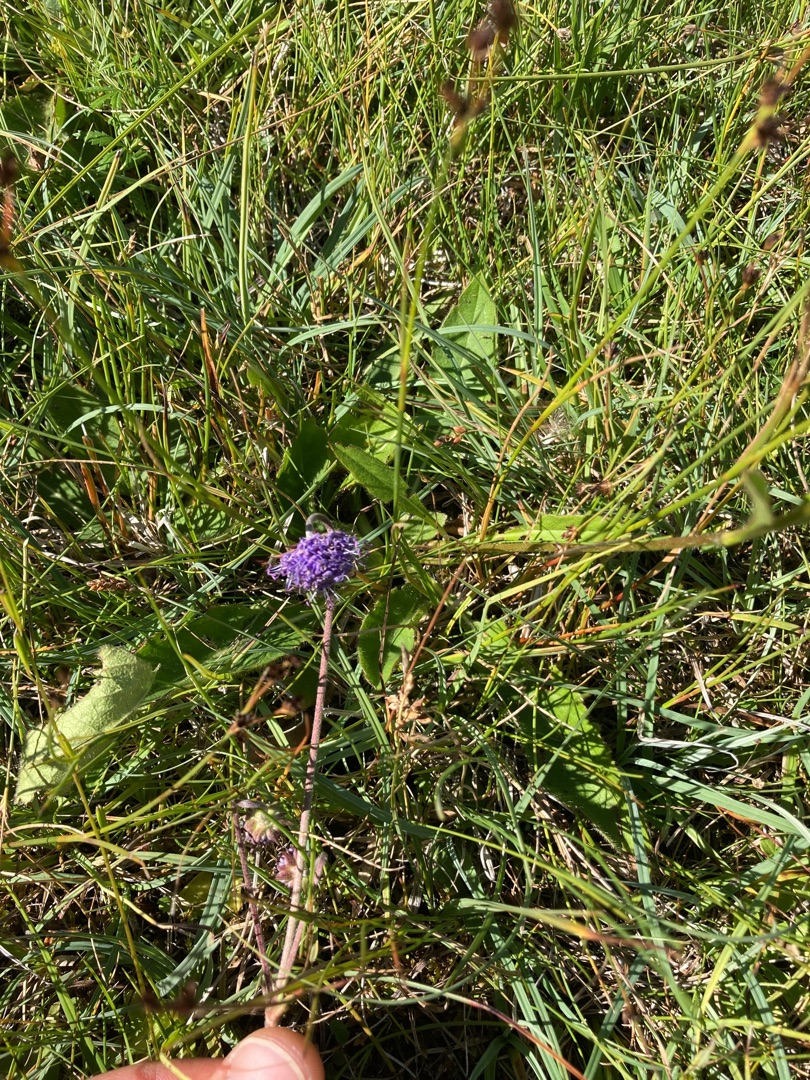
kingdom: Plantae
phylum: Tracheophyta
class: Magnoliopsida
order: Dipsacales
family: Caprifoliaceae
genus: Succisa
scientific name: Succisa pratensis
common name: Djævelsbid
